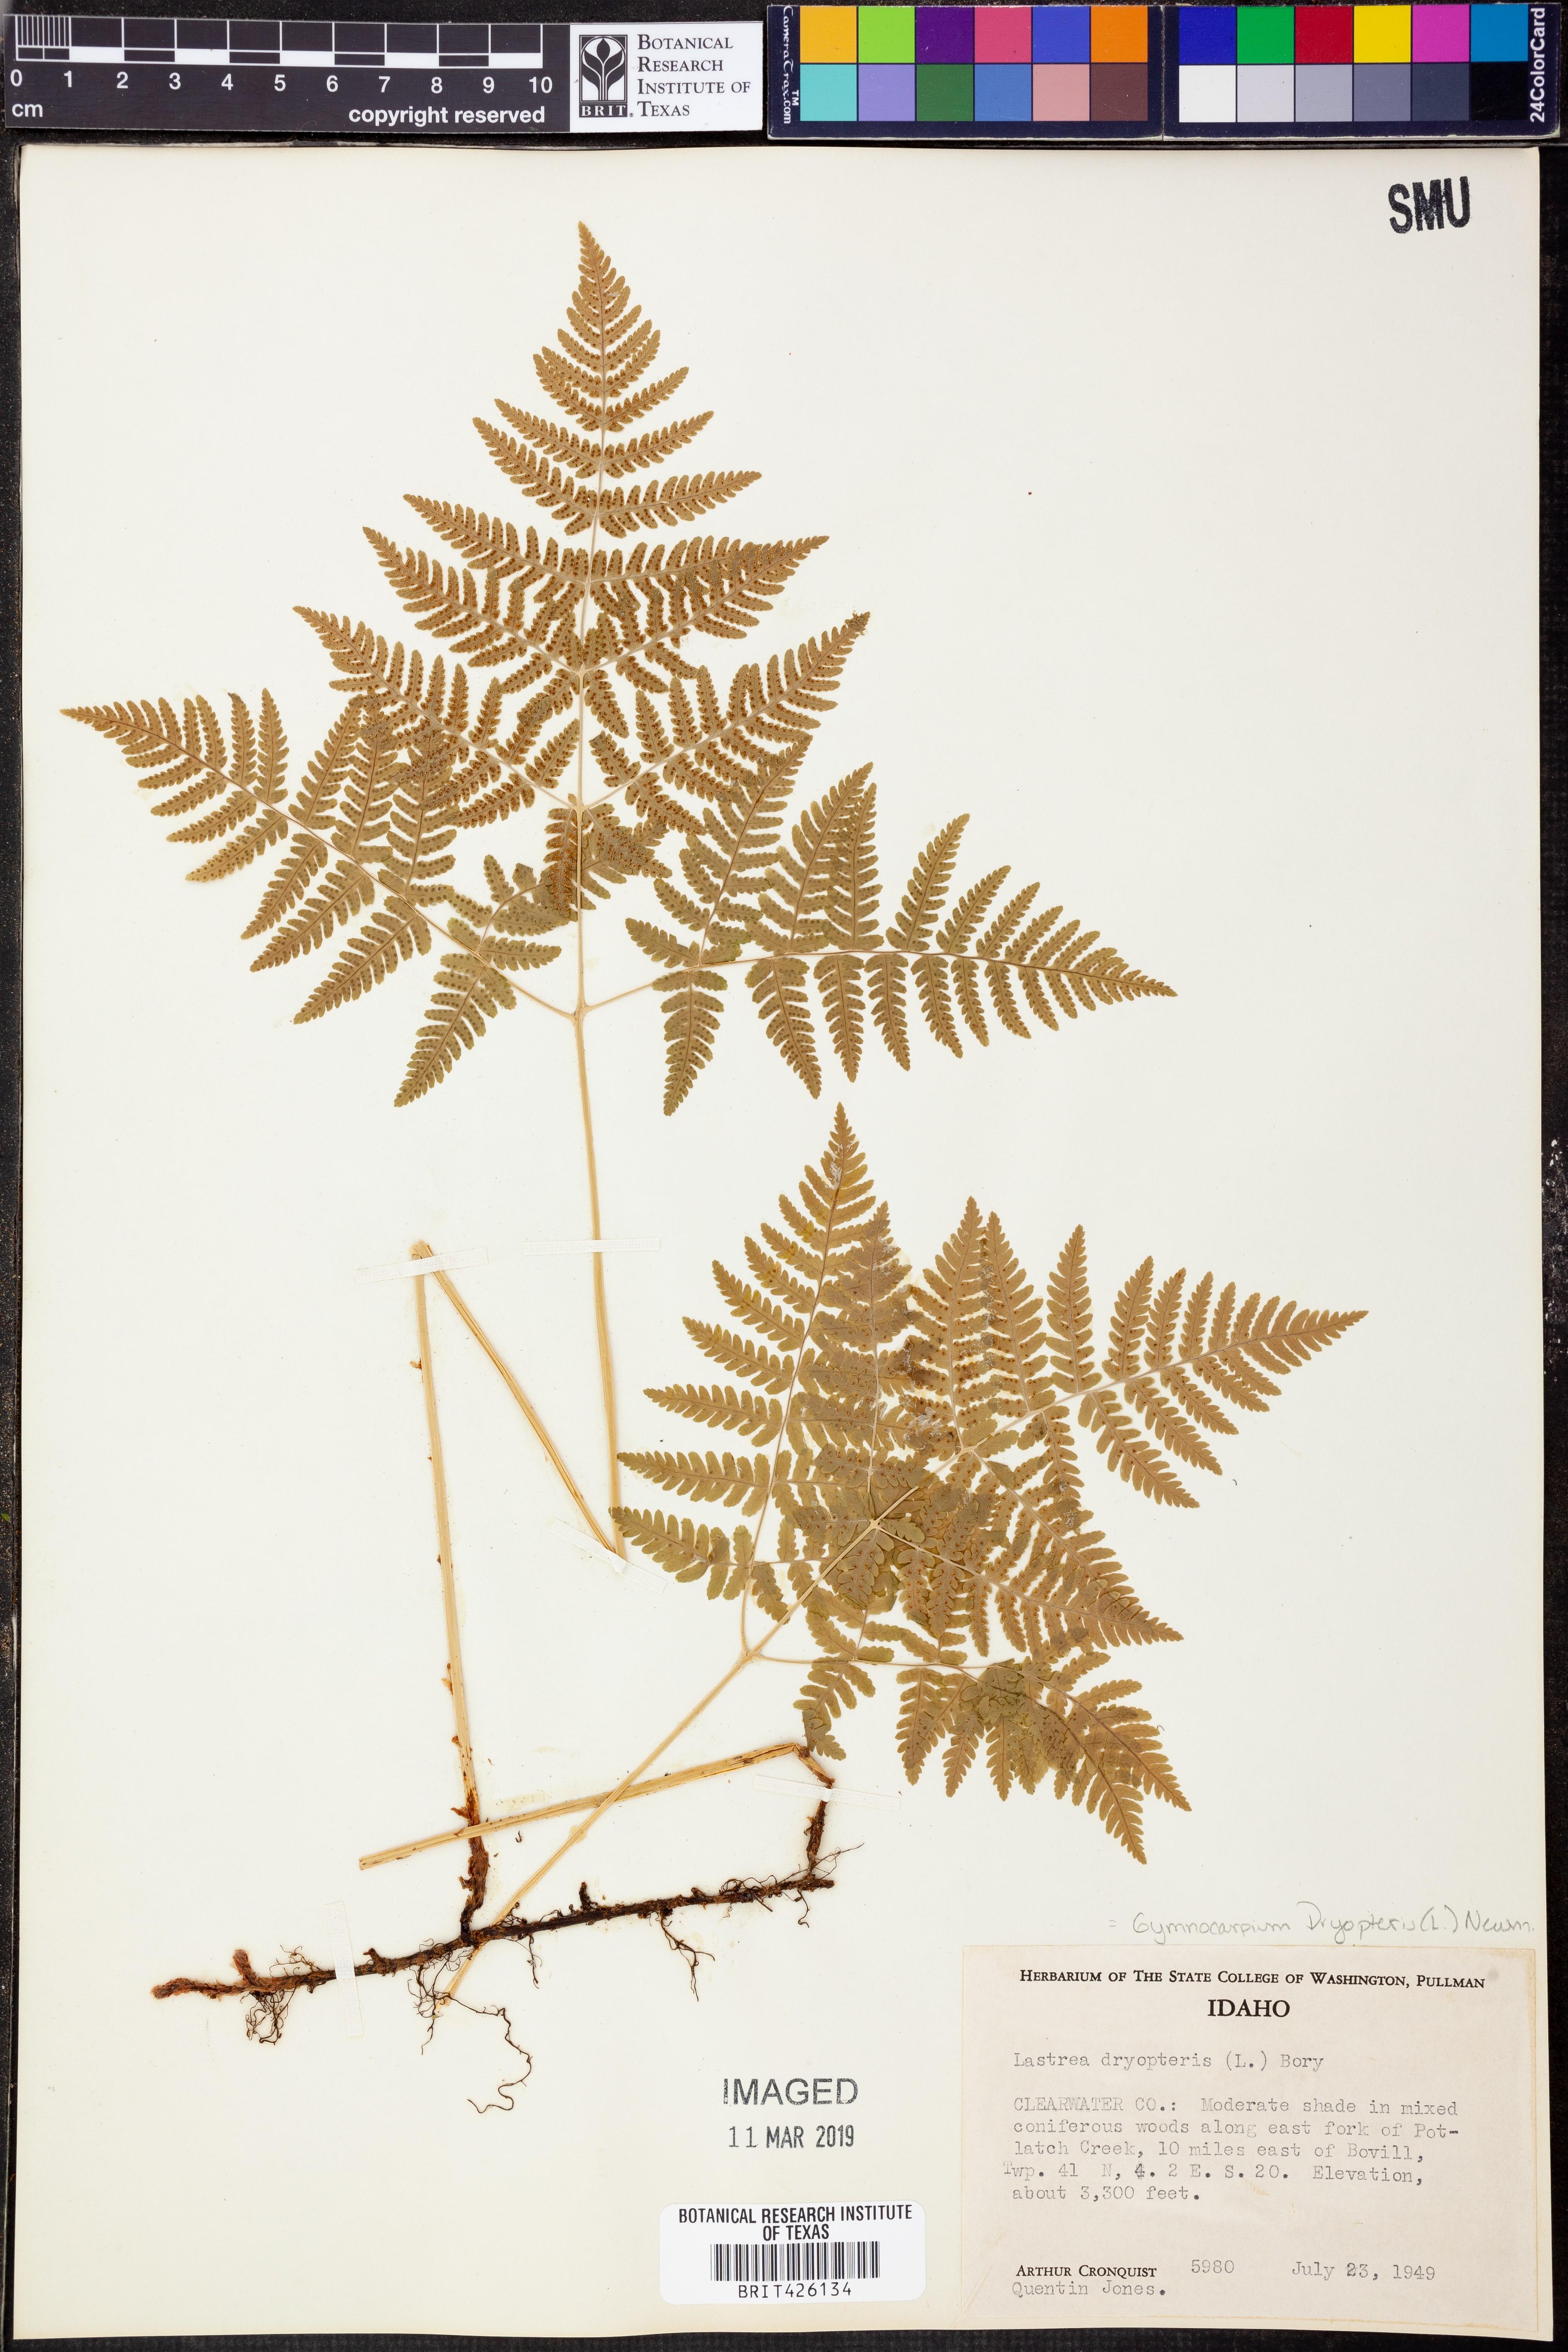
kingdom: Plantae
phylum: Tracheophyta
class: Polypodiopsida
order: Polypodiales
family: Cystopteridaceae
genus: Gymnocarpium
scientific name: Gymnocarpium dryopteris
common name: Oak fern
